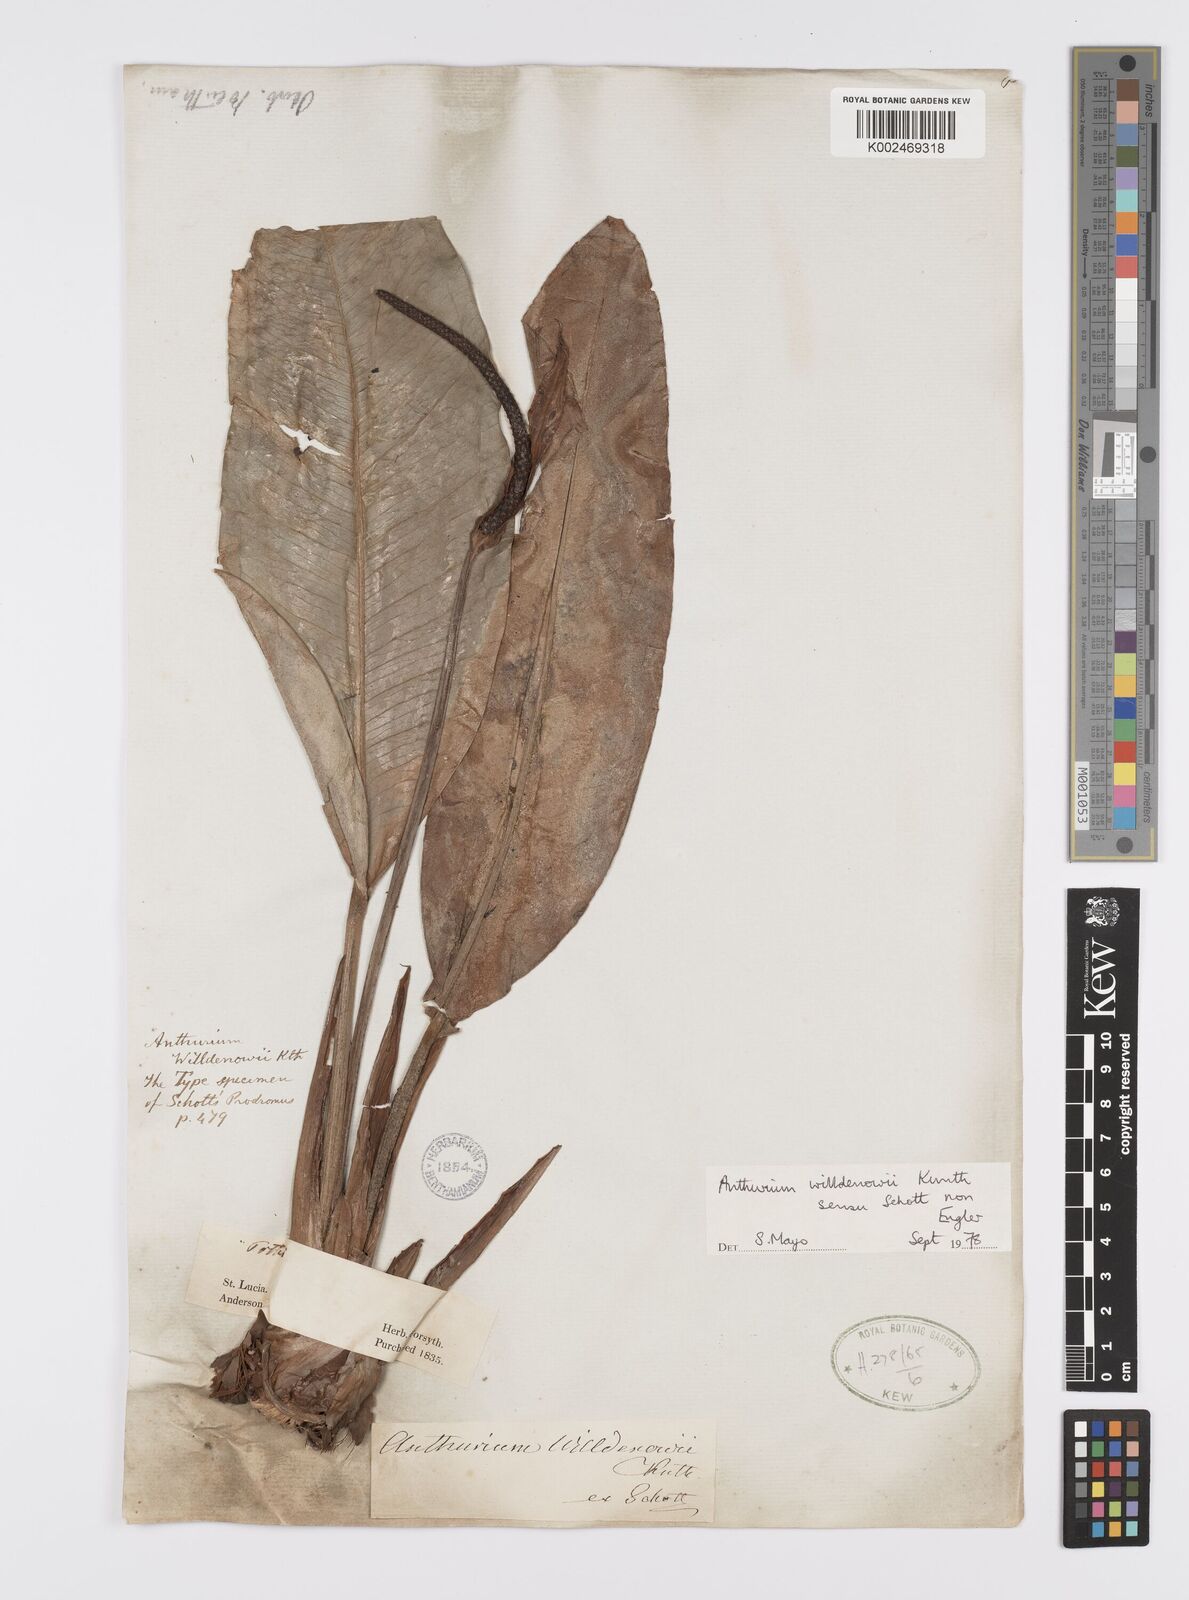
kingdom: Plantae
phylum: Tracheophyta
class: Liliopsida
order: Alismatales
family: Araceae
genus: Anthurium
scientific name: Anthurium willdenowii
